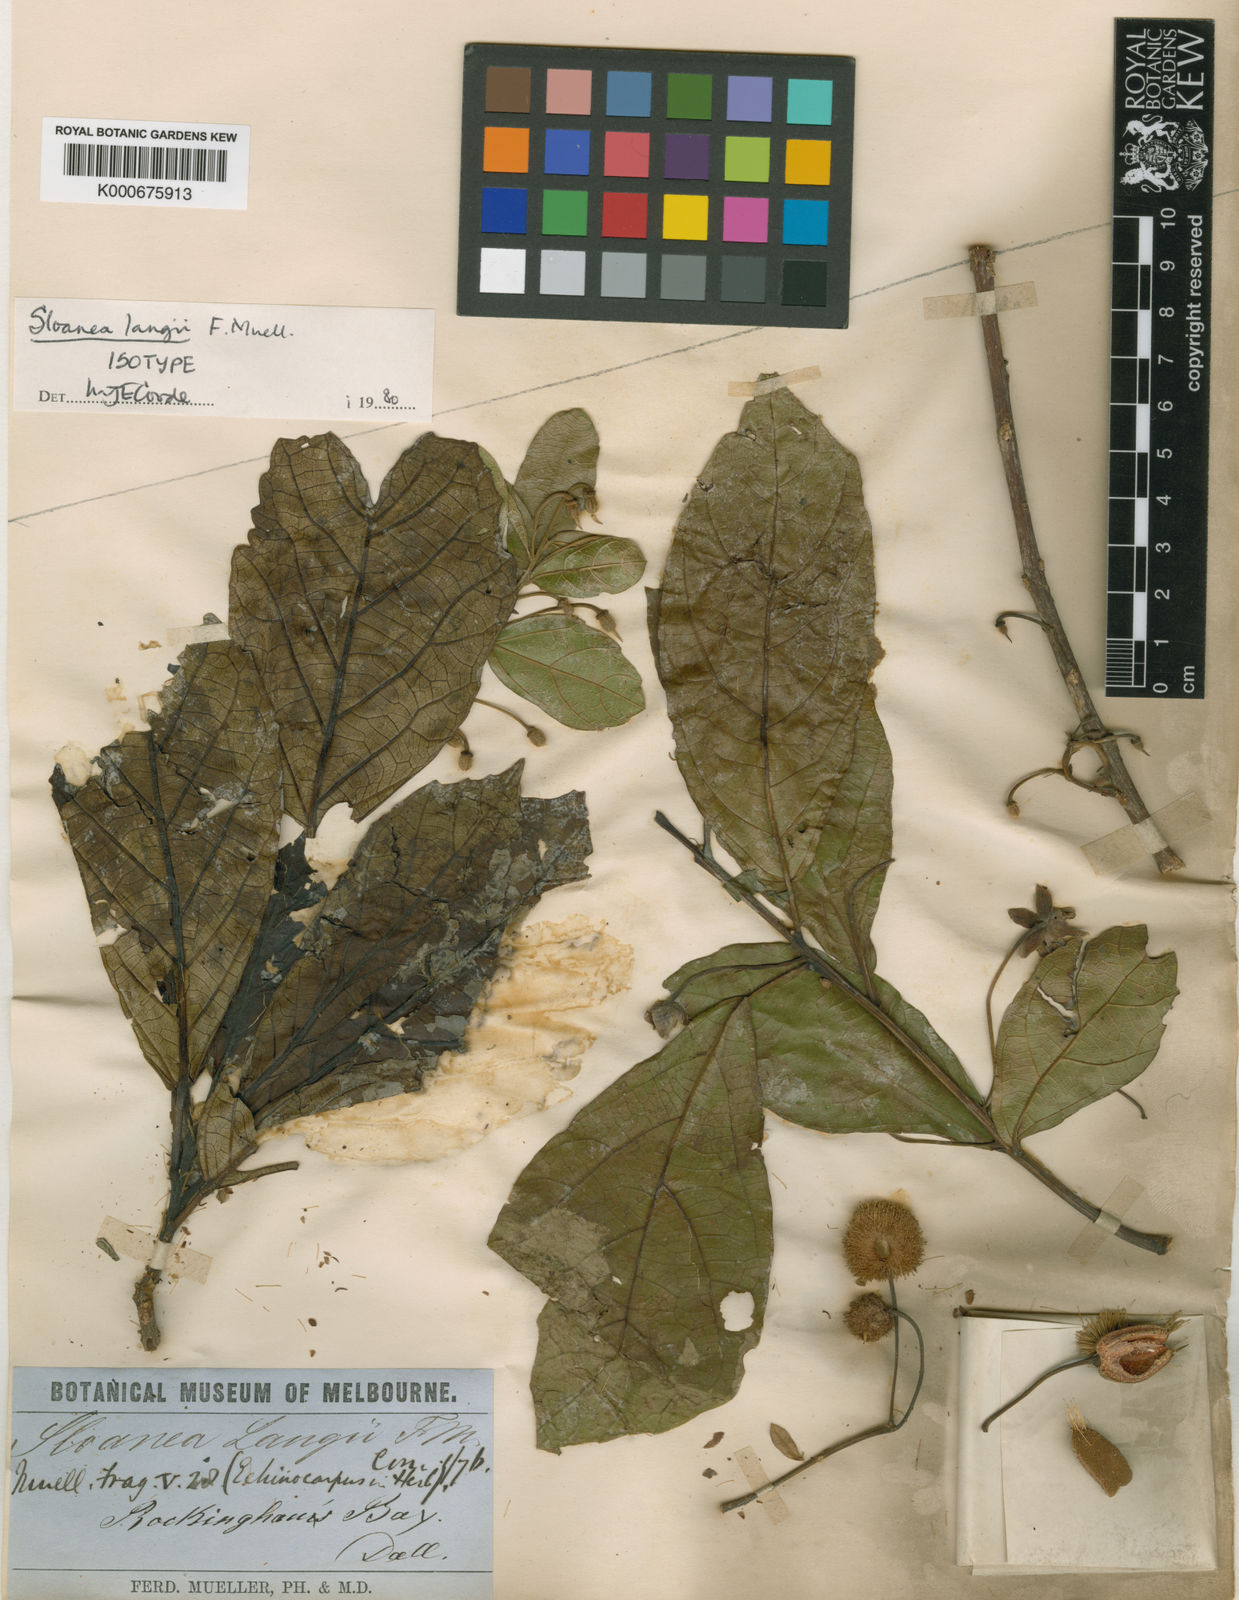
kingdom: Plantae
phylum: Tracheophyta
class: Magnoliopsida
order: Oxalidales
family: Elaeocarpaceae
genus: Sloanea
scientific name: Sloanea langii
